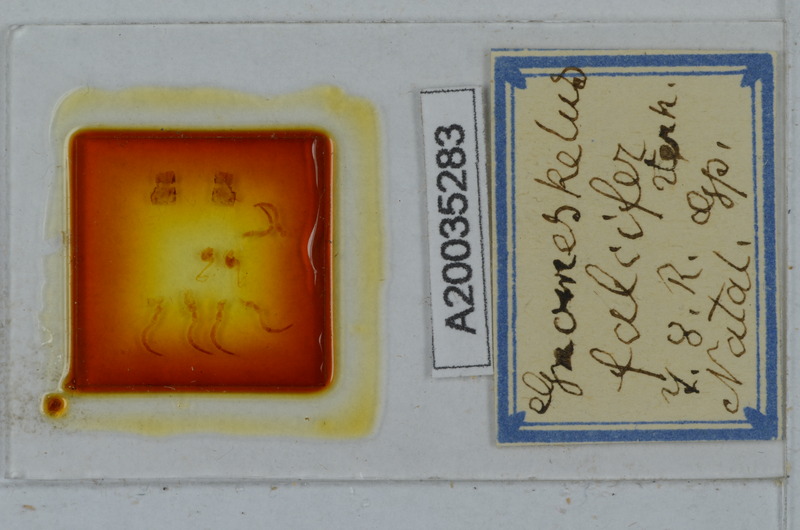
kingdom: Animalia
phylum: Arthropoda
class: Diplopoda
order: Polydesmida
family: Dalodesmidae
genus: Gnomeskelus
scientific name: Gnomeskelus tuberosus
